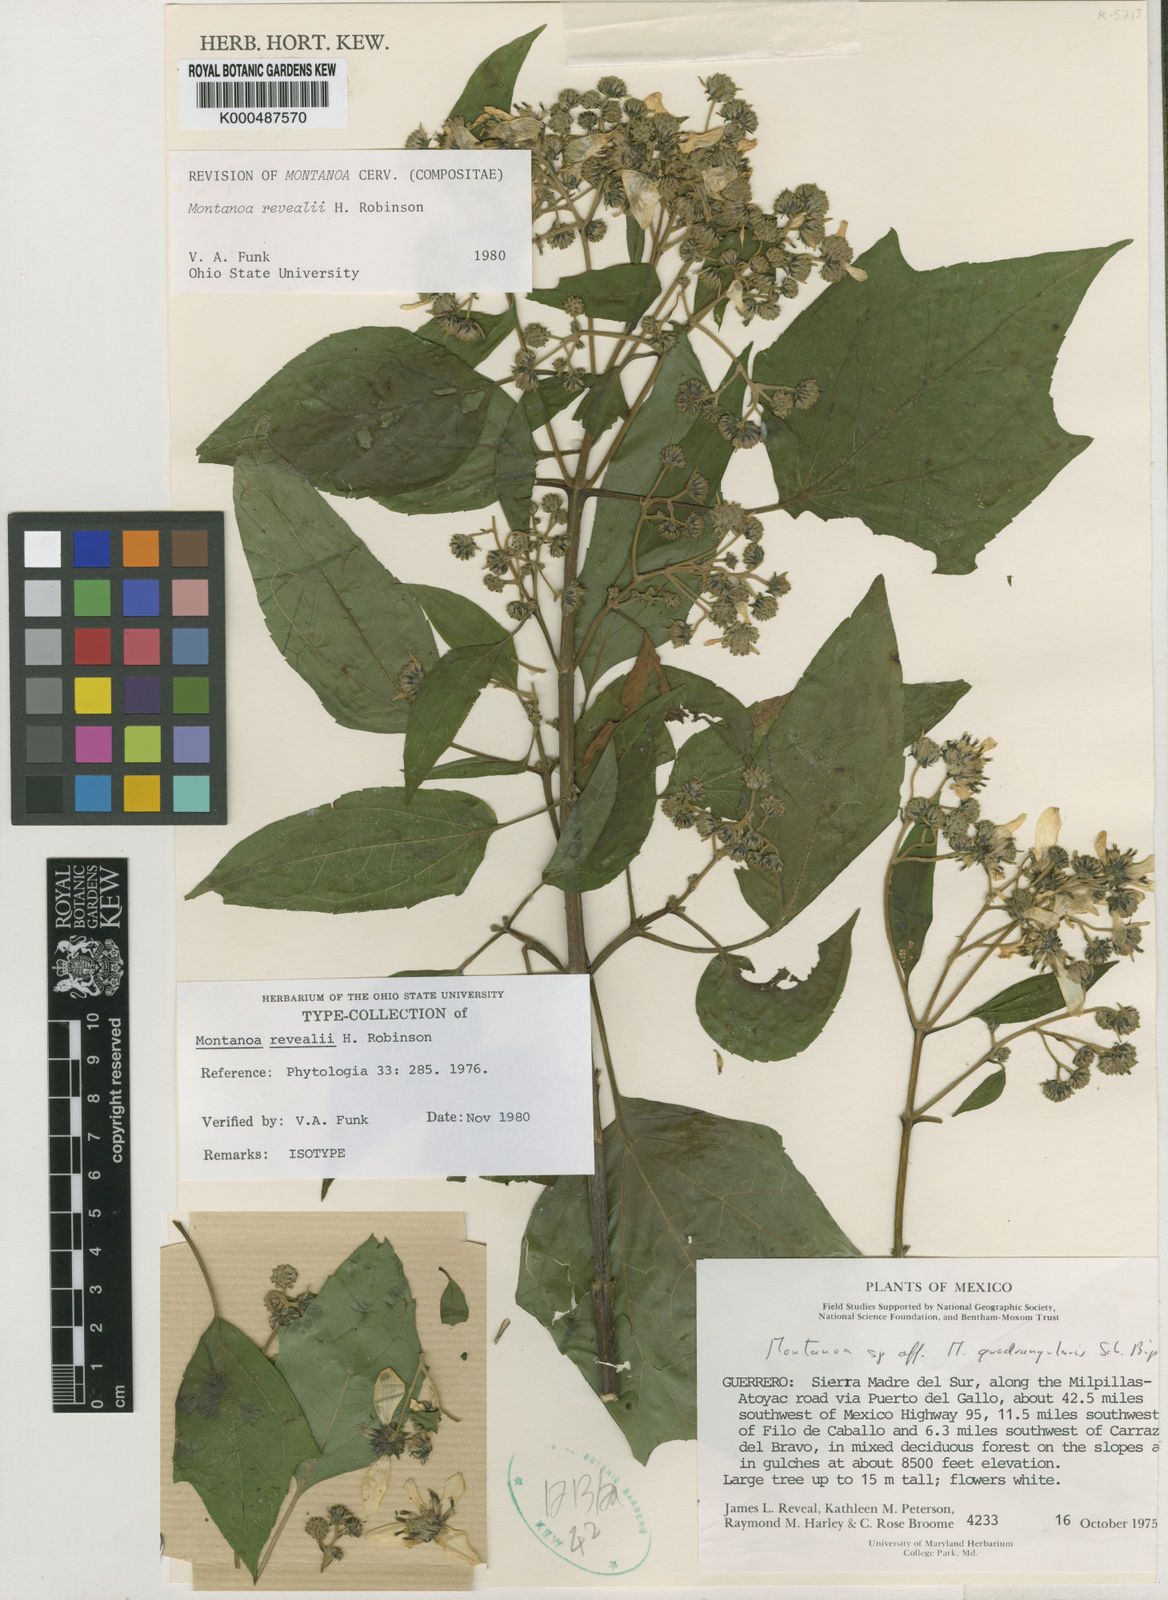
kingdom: Plantae
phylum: Tracheophyta
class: Magnoliopsida
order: Asterales
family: Asteraceae
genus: Montanoa
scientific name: Montanoa revealii
